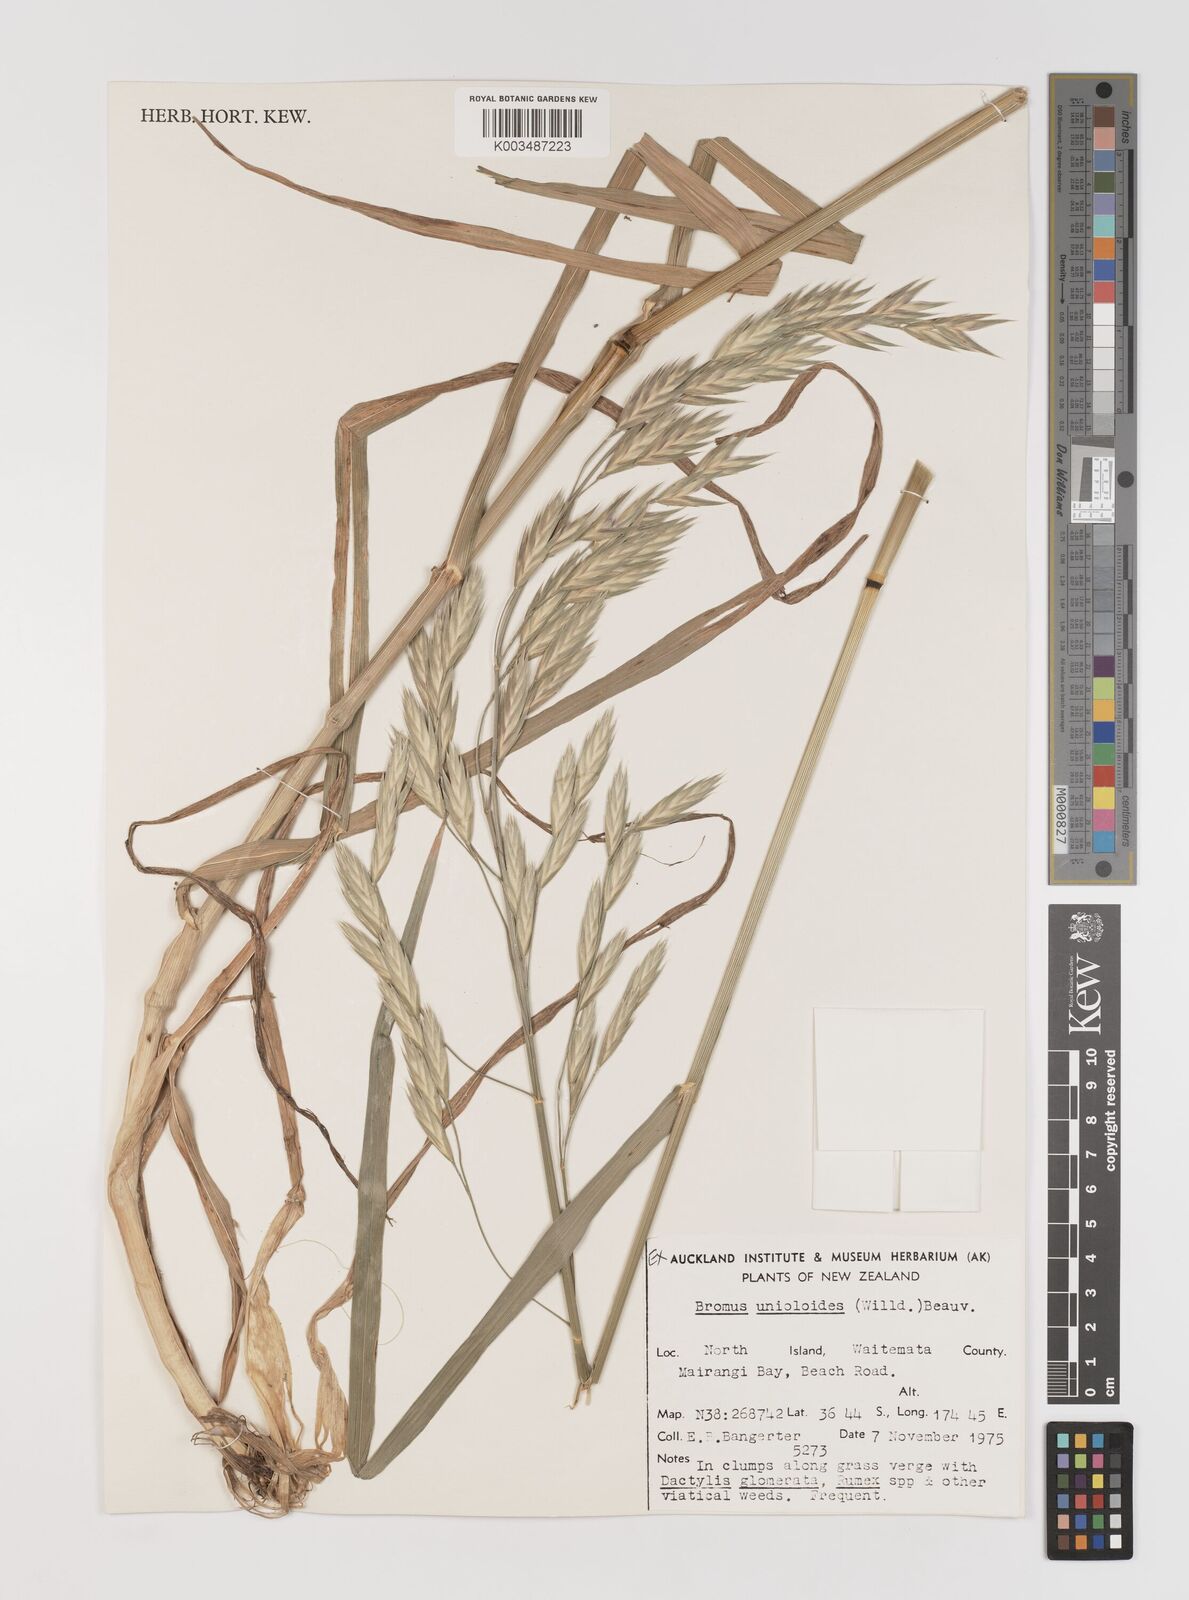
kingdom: Plantae
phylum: Tracheophyta
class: Liliopsida
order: Poales
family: Poaceae
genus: Bromus
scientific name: Bromus catharticus
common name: Rescuegrass
